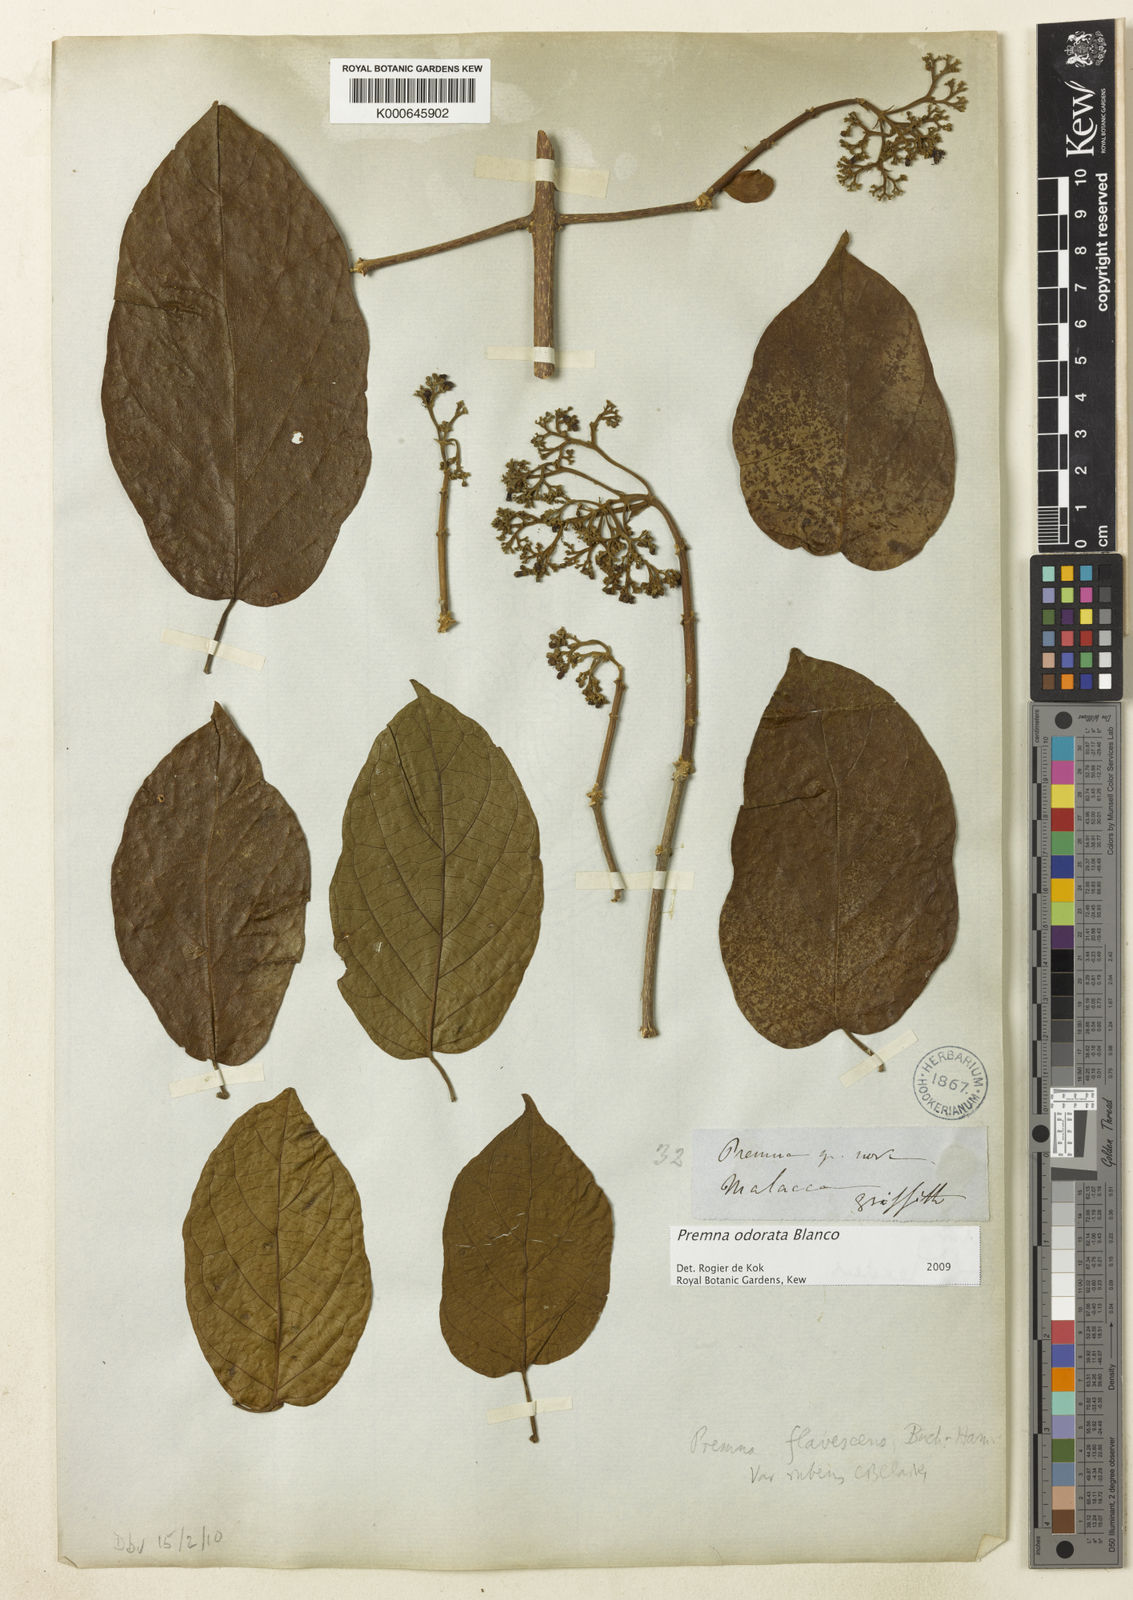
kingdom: Plantae
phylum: Tracheophyta
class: Magnoliopsida
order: Lamiales
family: Lamiaceae
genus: Premna
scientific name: Premna odorata
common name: Fragrant premna
